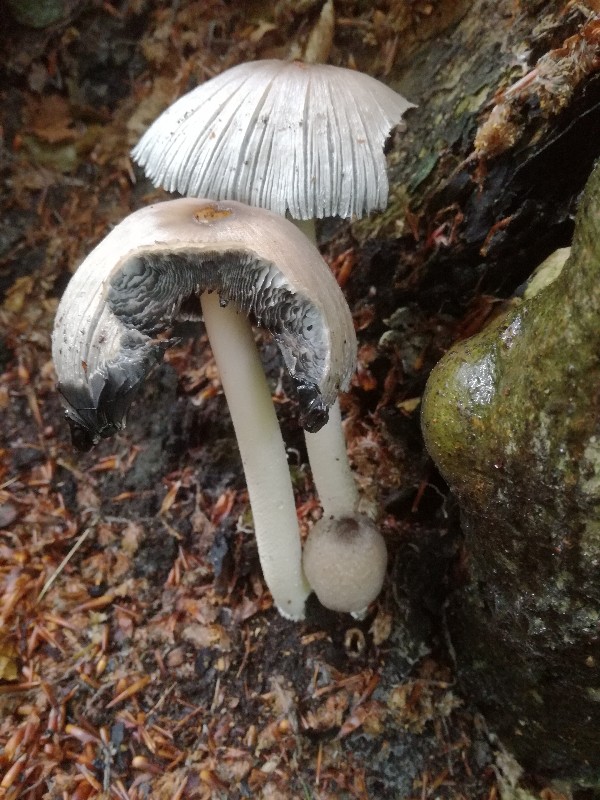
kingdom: Fungi
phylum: Basidiomycota
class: Agaricomycetes
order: Agaricales
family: Psathyrellaceae
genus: Coprinopsis
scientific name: Coprinopsis insignis
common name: stor blækhat
